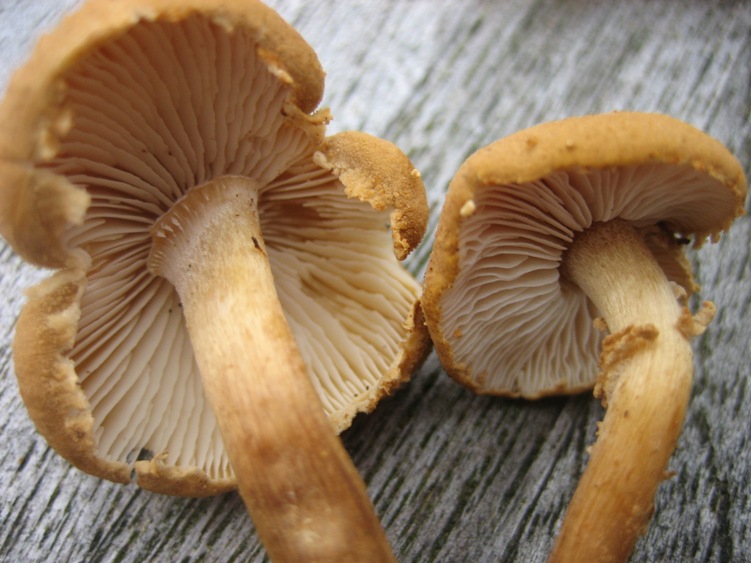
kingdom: Fungi
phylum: Basidiomycota
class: Agaricomycetes
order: Agaricales
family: Tricholomataceae
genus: Cystoderma
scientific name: Cystoderma amianthinum
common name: okkergul grynhat
